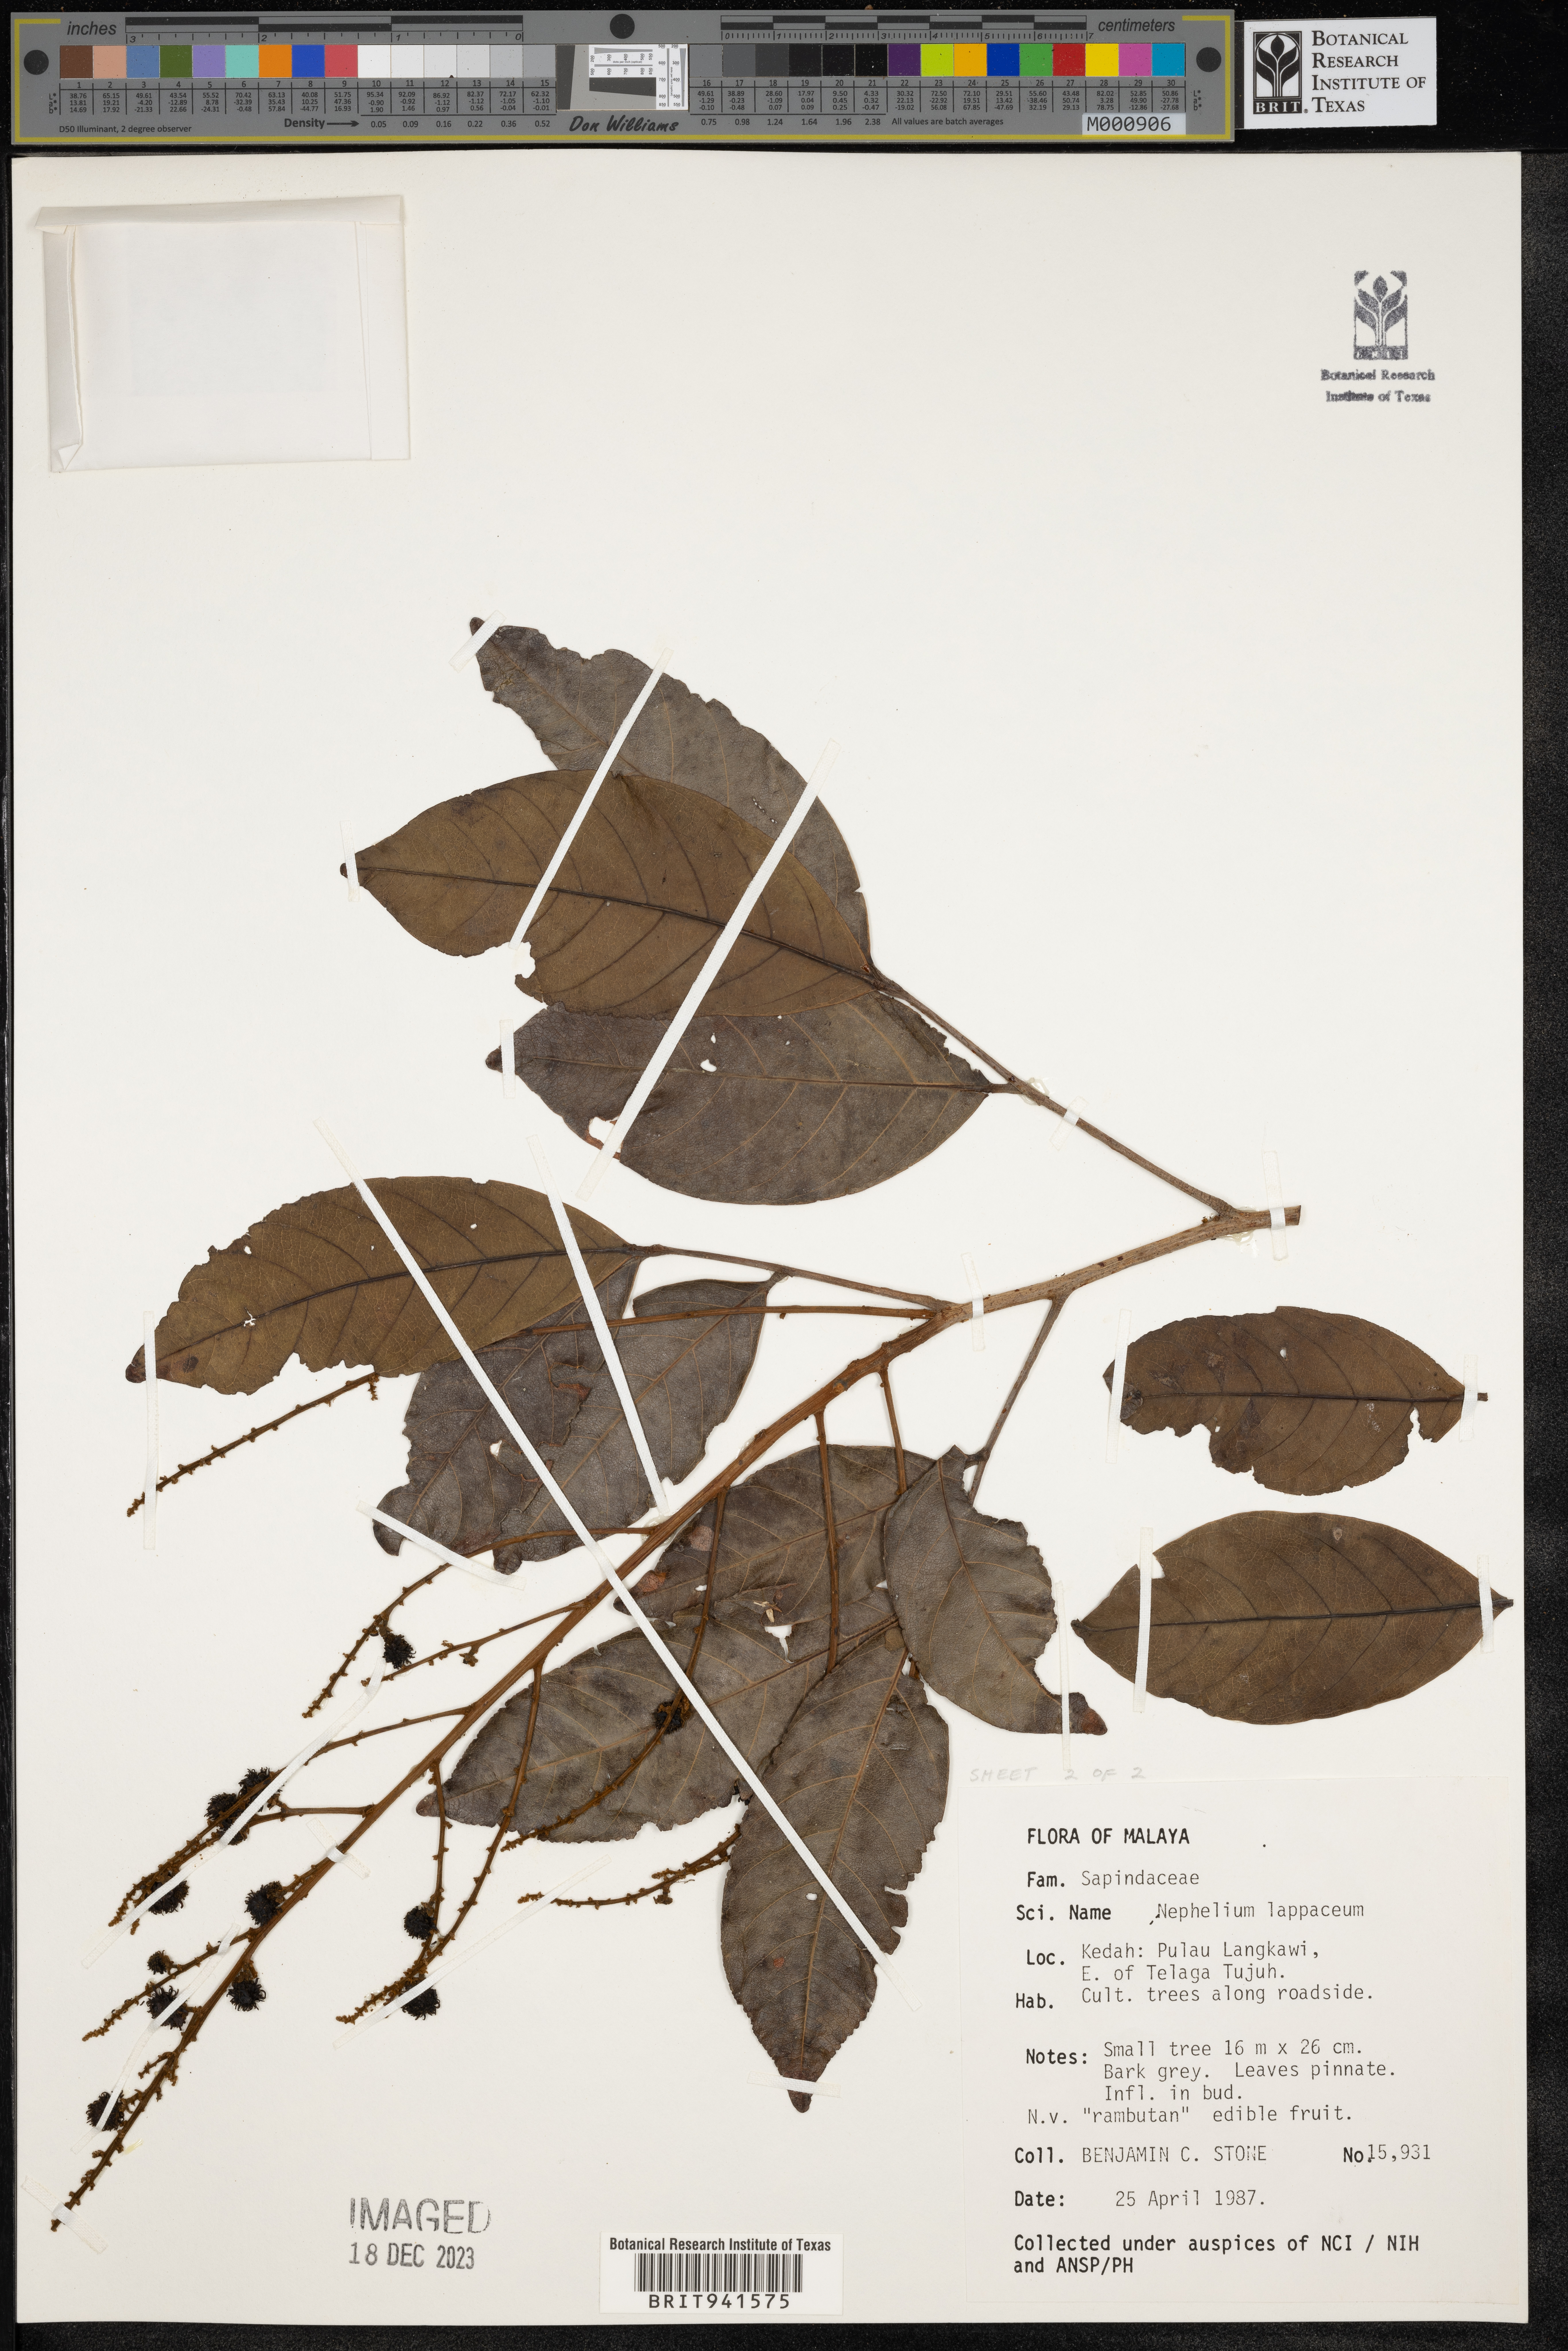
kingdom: Plantae
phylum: Tracheophyta
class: Magnoliopsida
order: Sapindales
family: Sapindaceae
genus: Nephelium
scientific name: Nephelium
